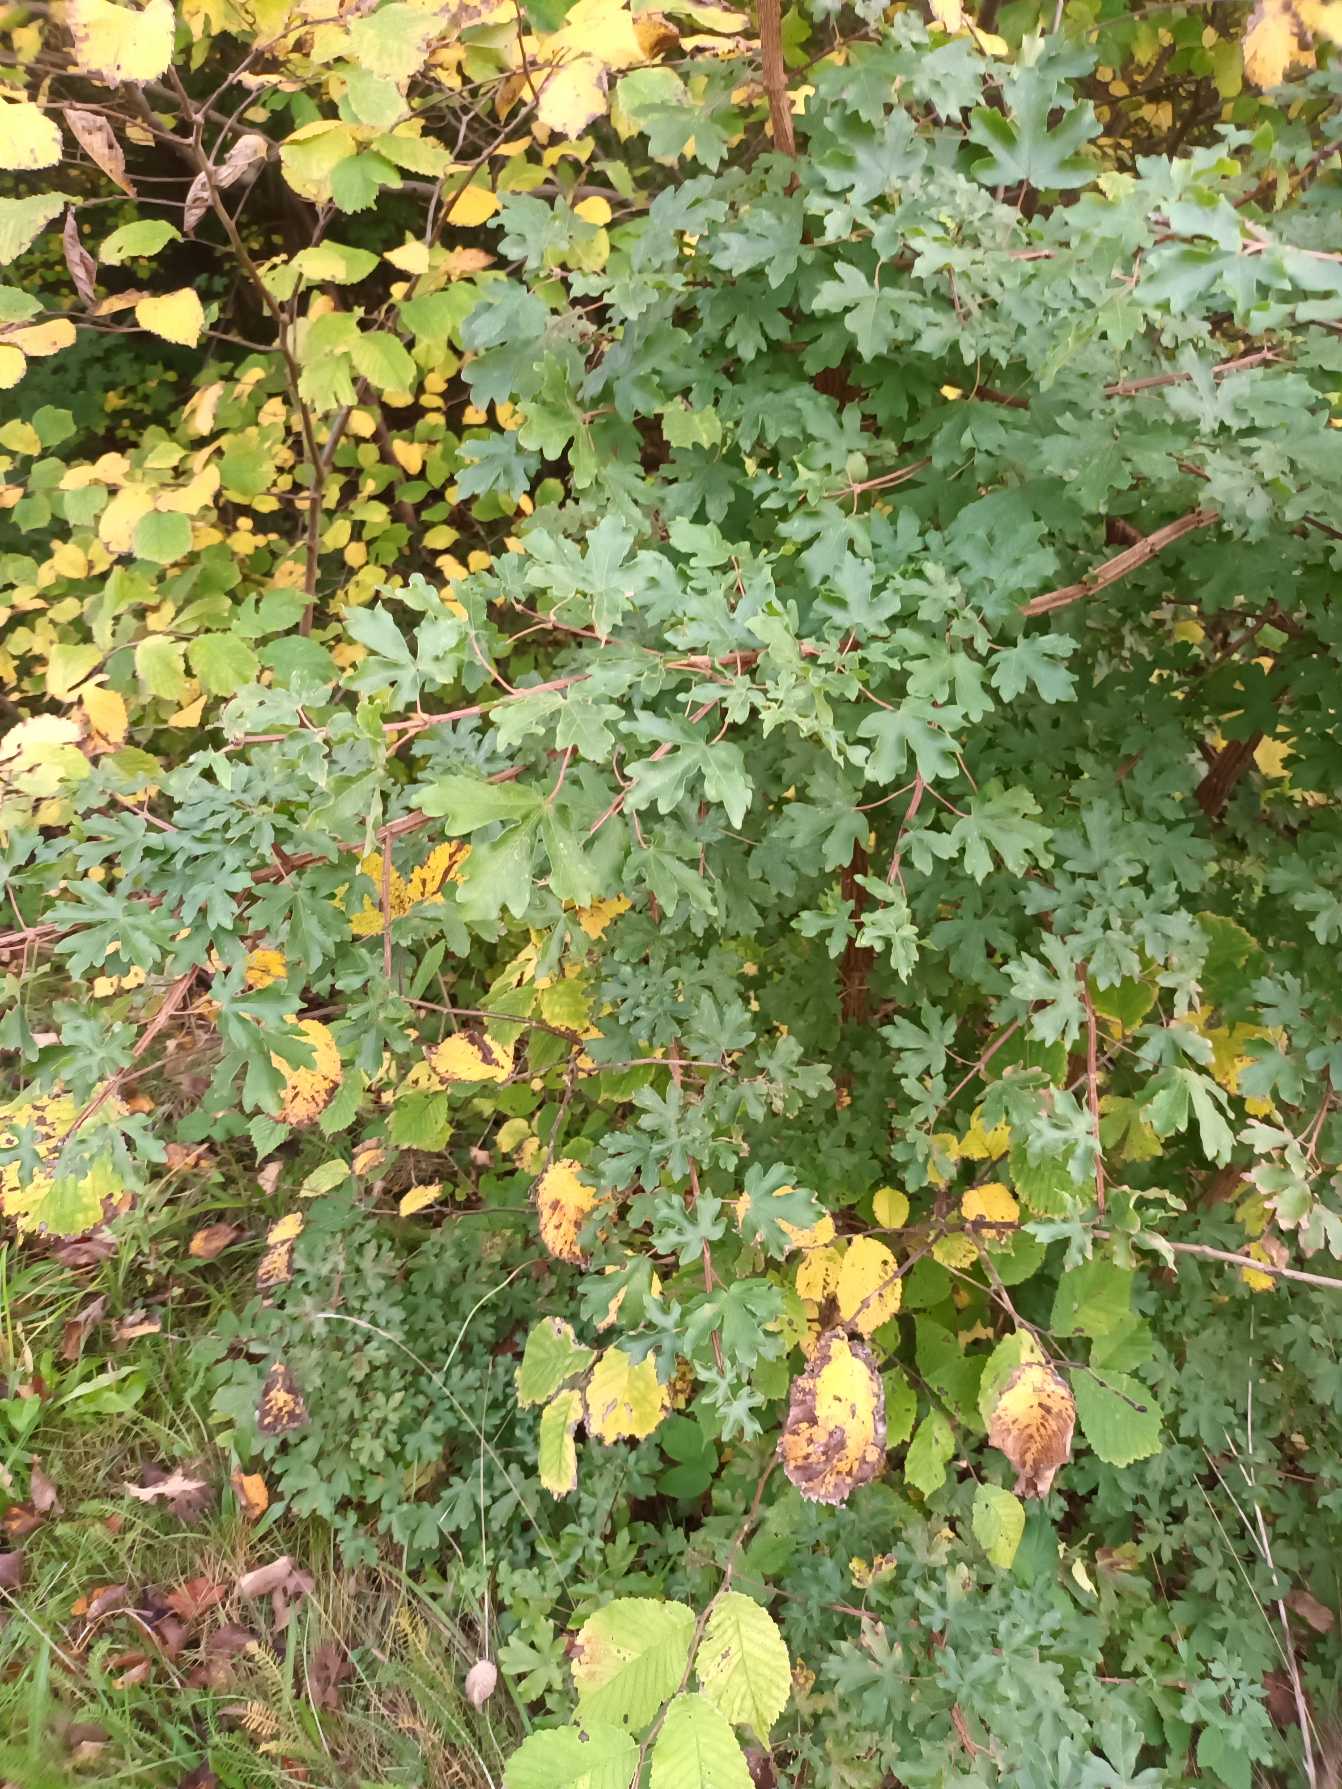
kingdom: Plantae
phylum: Tracheophyta
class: Magnoliopsida
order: Sapindales
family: Sapindaceae
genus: Acer
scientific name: Acer campestre
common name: Navr
